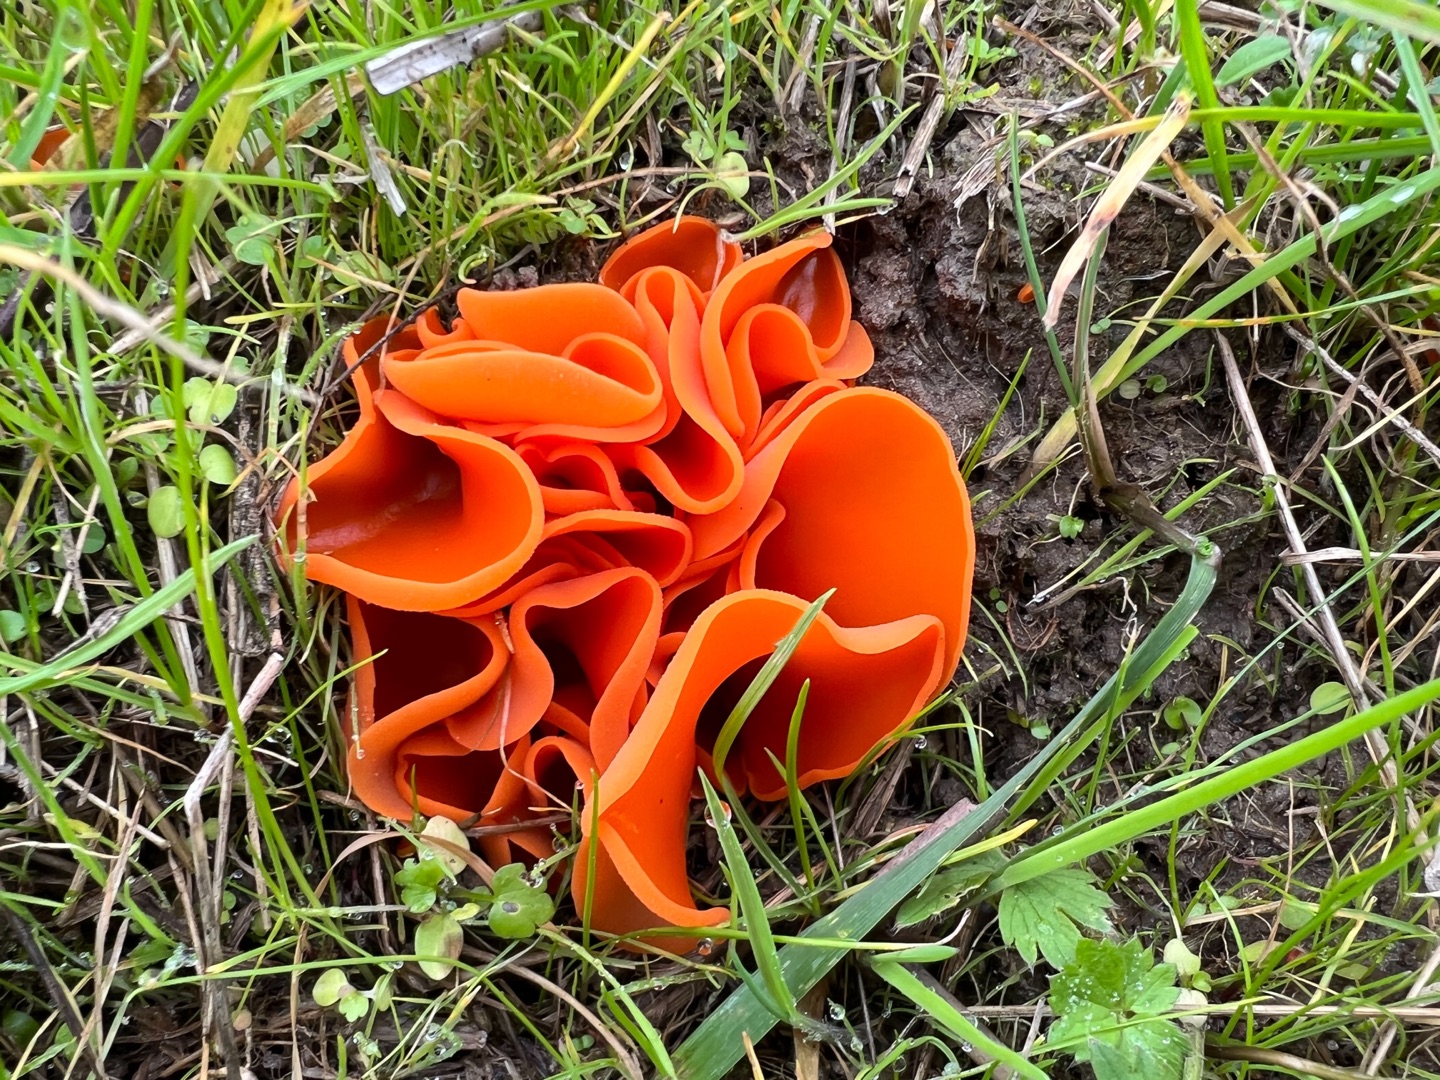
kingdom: Fungi
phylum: Ascomycota
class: Pezizomycetes
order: Pezizales
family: Pyronemataceae
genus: Aleuria
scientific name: Aleuria aurantia
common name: Almindelig orangebæger
